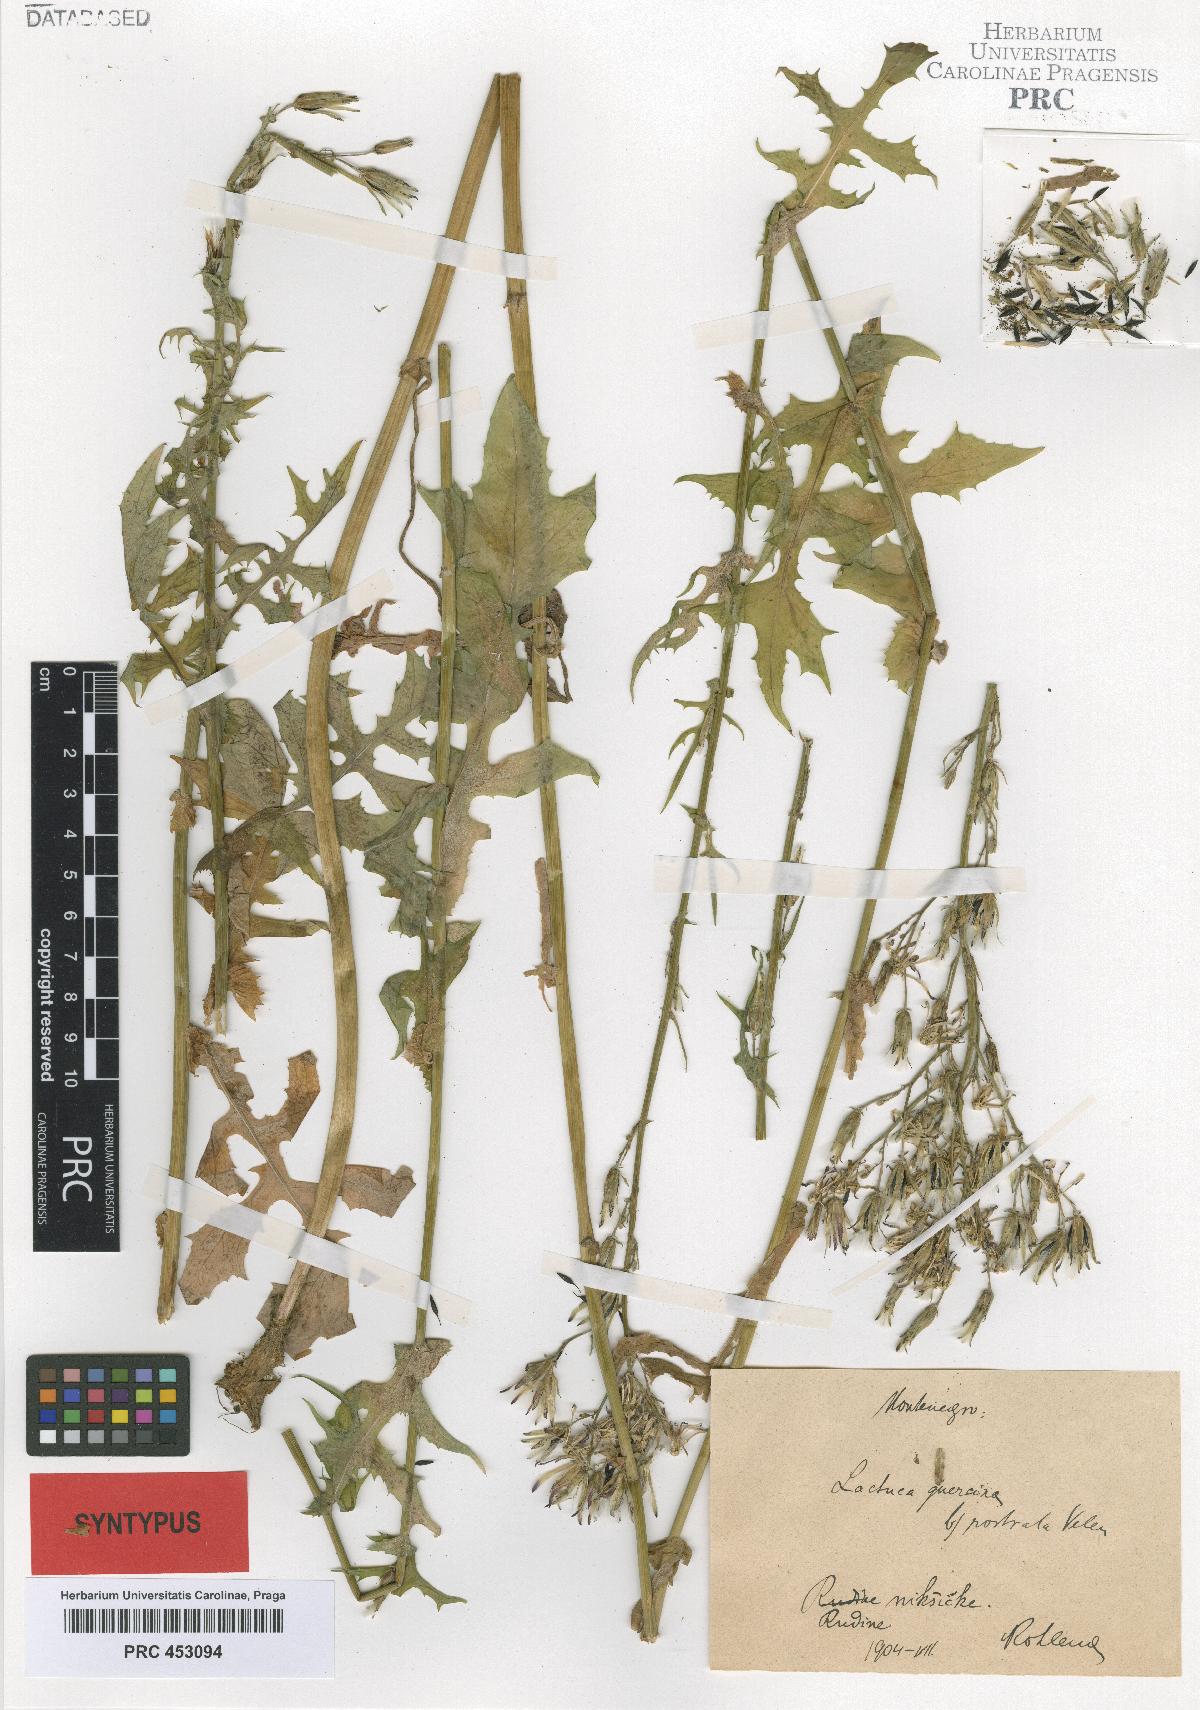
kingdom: Plantae
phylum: Tracheophyta
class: Magnoliopsida
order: Asterales
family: Asteraceae
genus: Lactuca
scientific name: Lactuca quercina
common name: Wild lettuce
